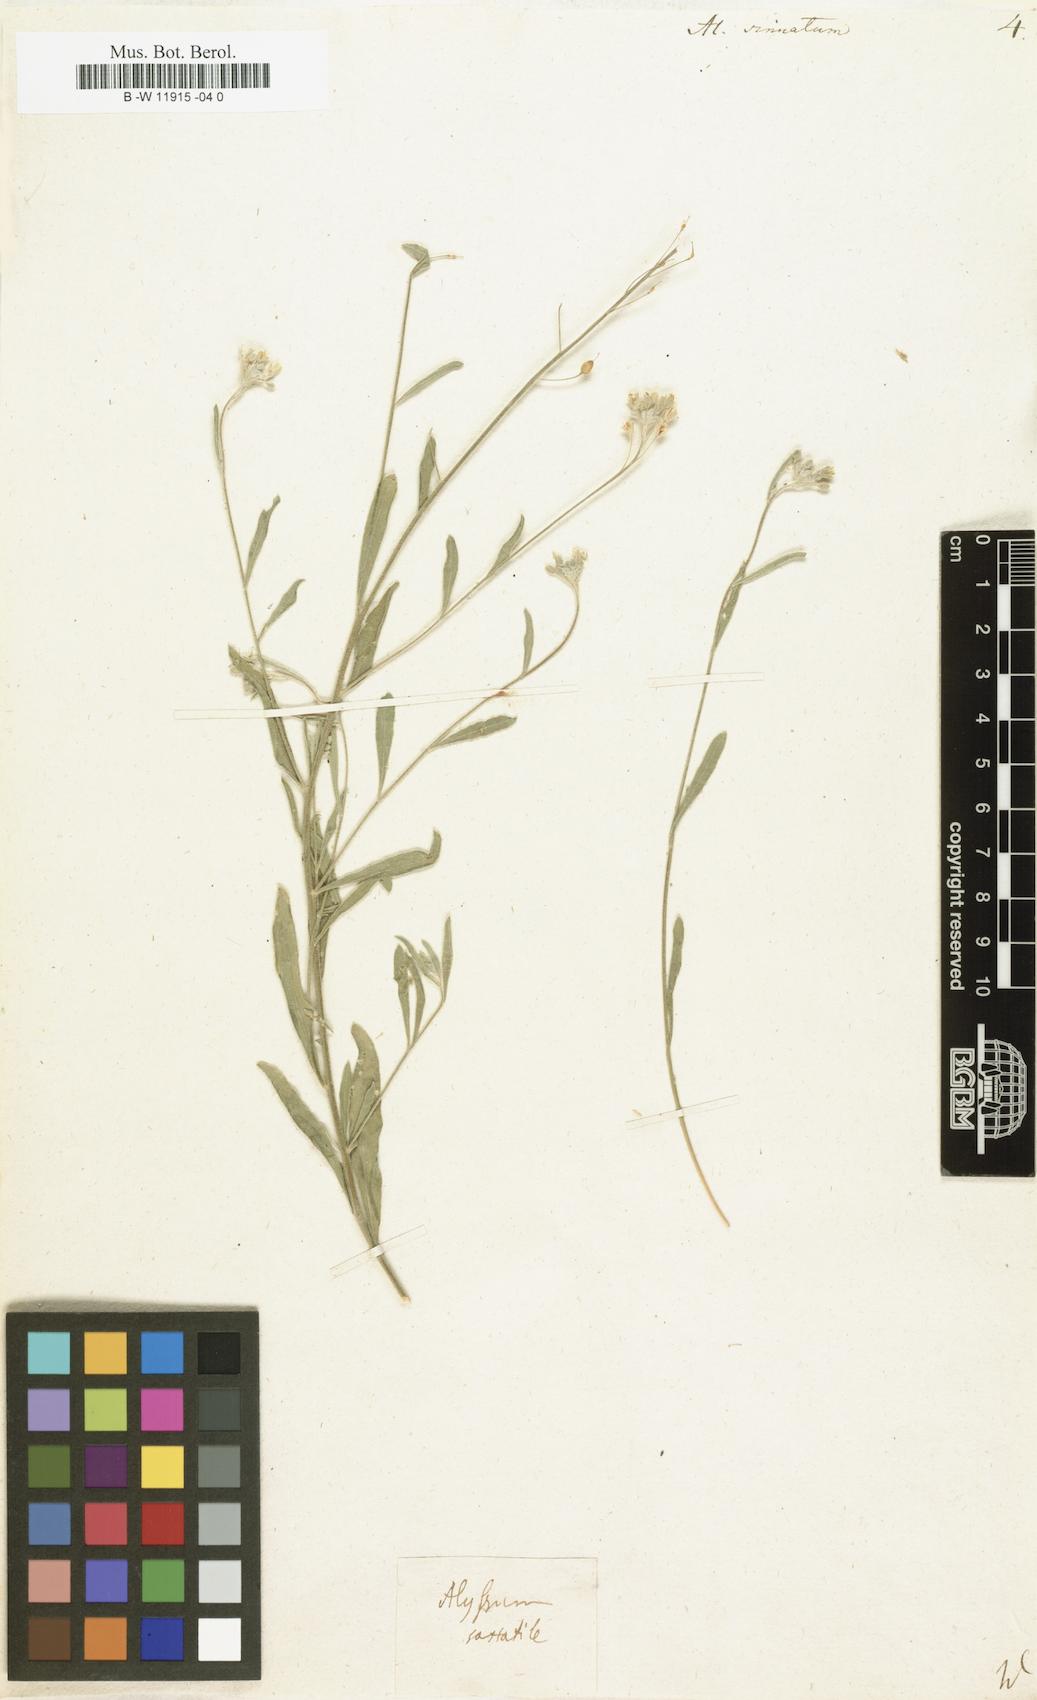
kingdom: Plantae
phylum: Tracheophyta
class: Magnoliopsida
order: Brassicales
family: Brassicaceae
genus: Aurinia
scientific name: Aurinia sinuata
